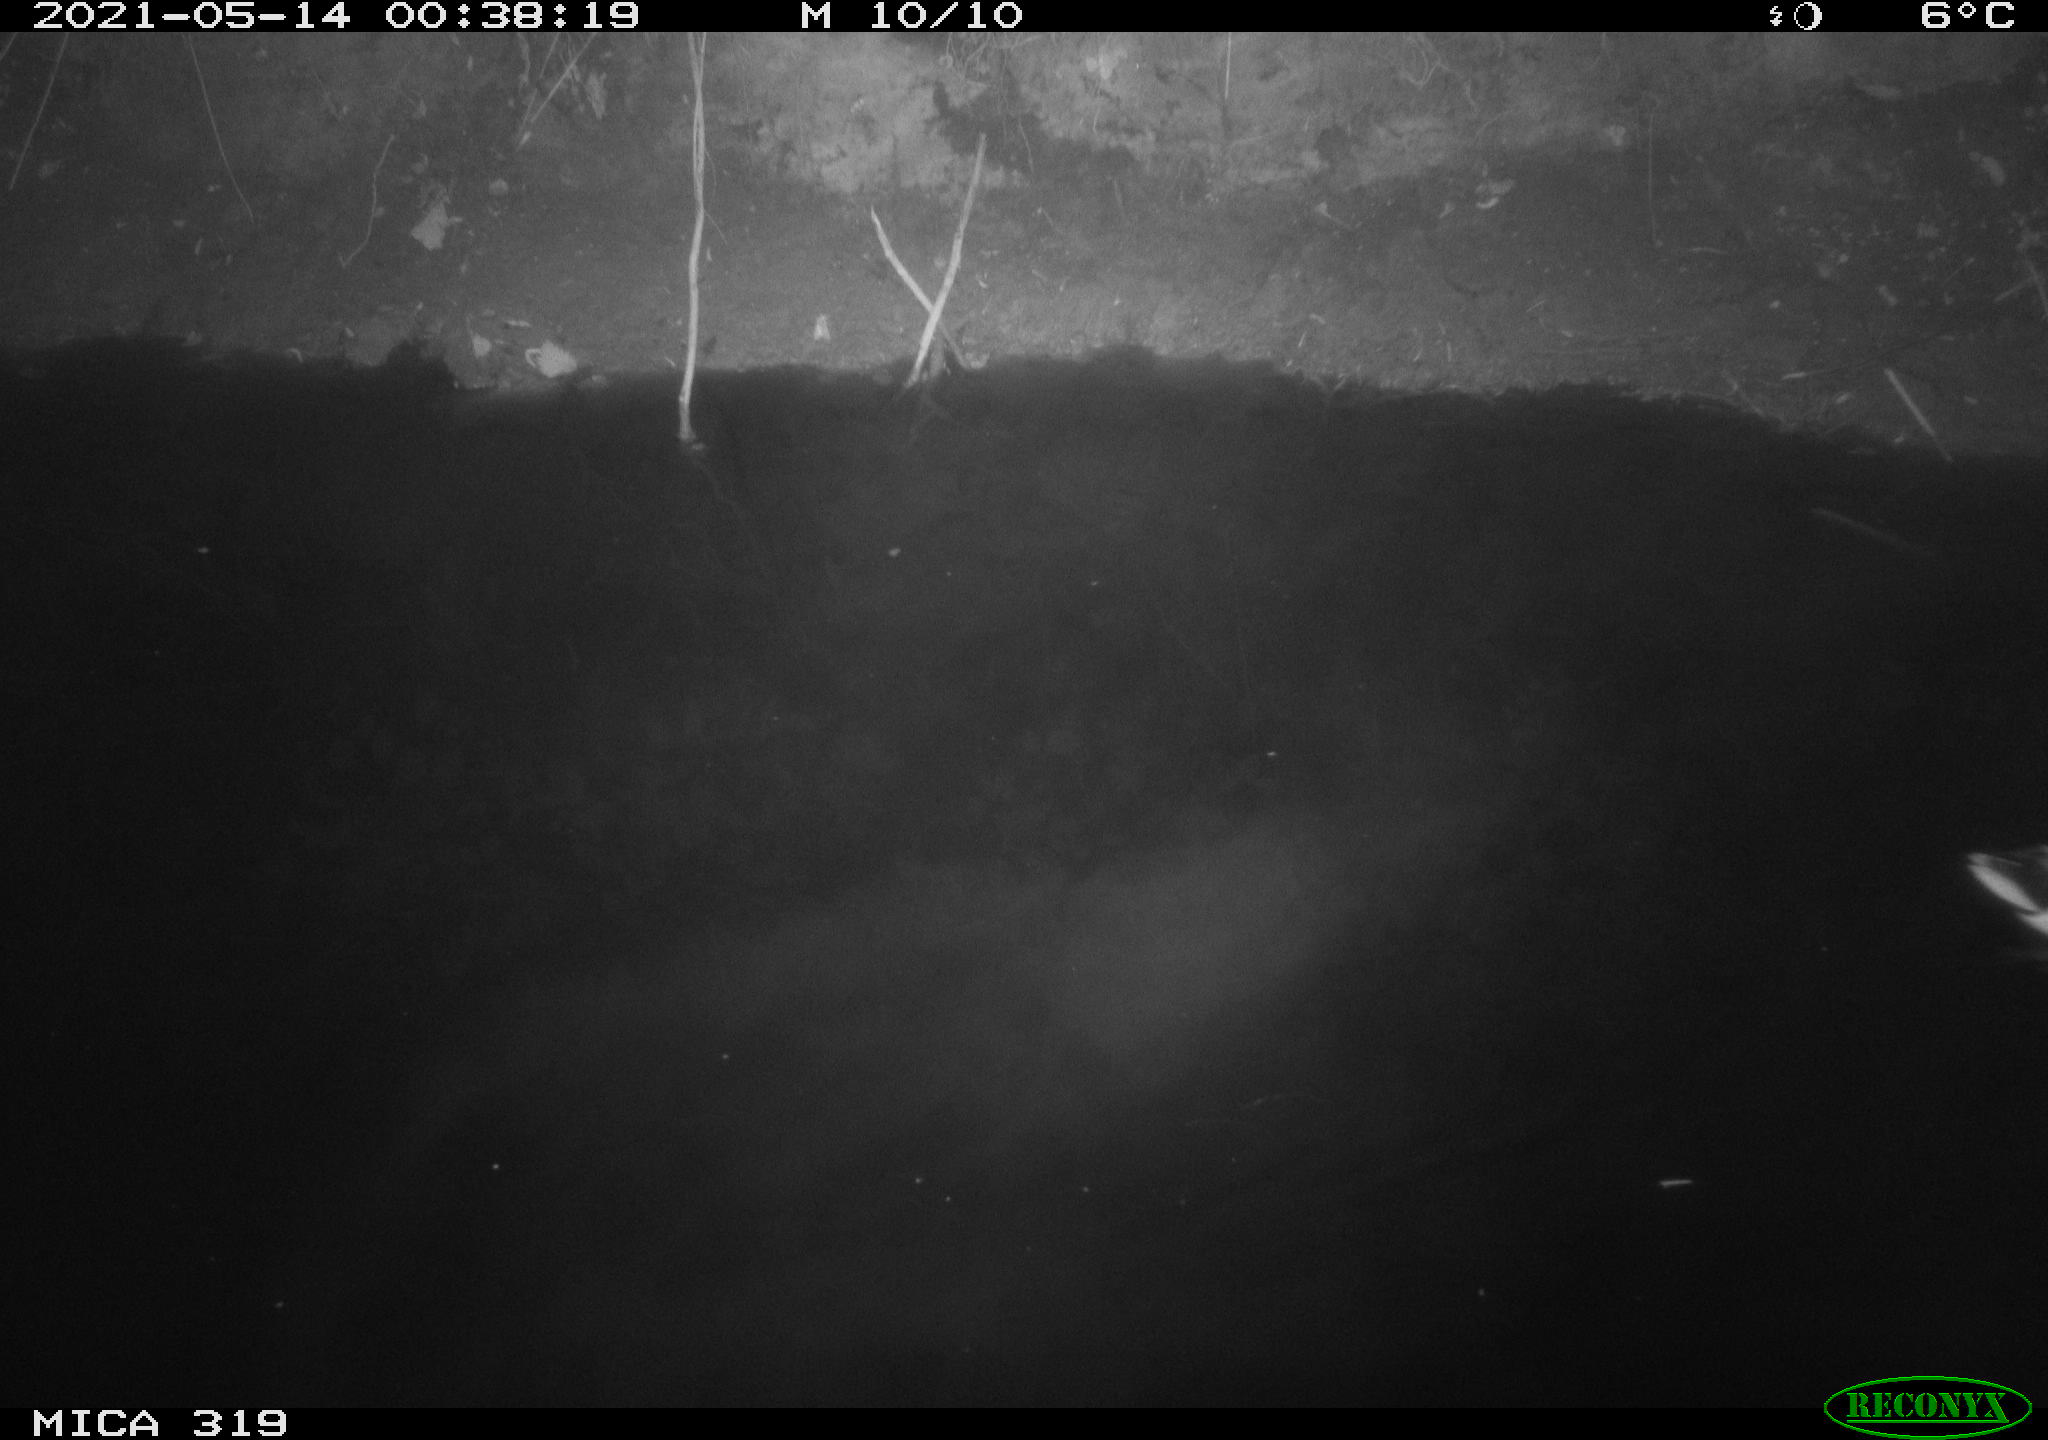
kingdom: Animalia
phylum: Chordata
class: Aves
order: Anseriformes
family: Anatidae
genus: Anas
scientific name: Anas platyrhynchos
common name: Mallard
